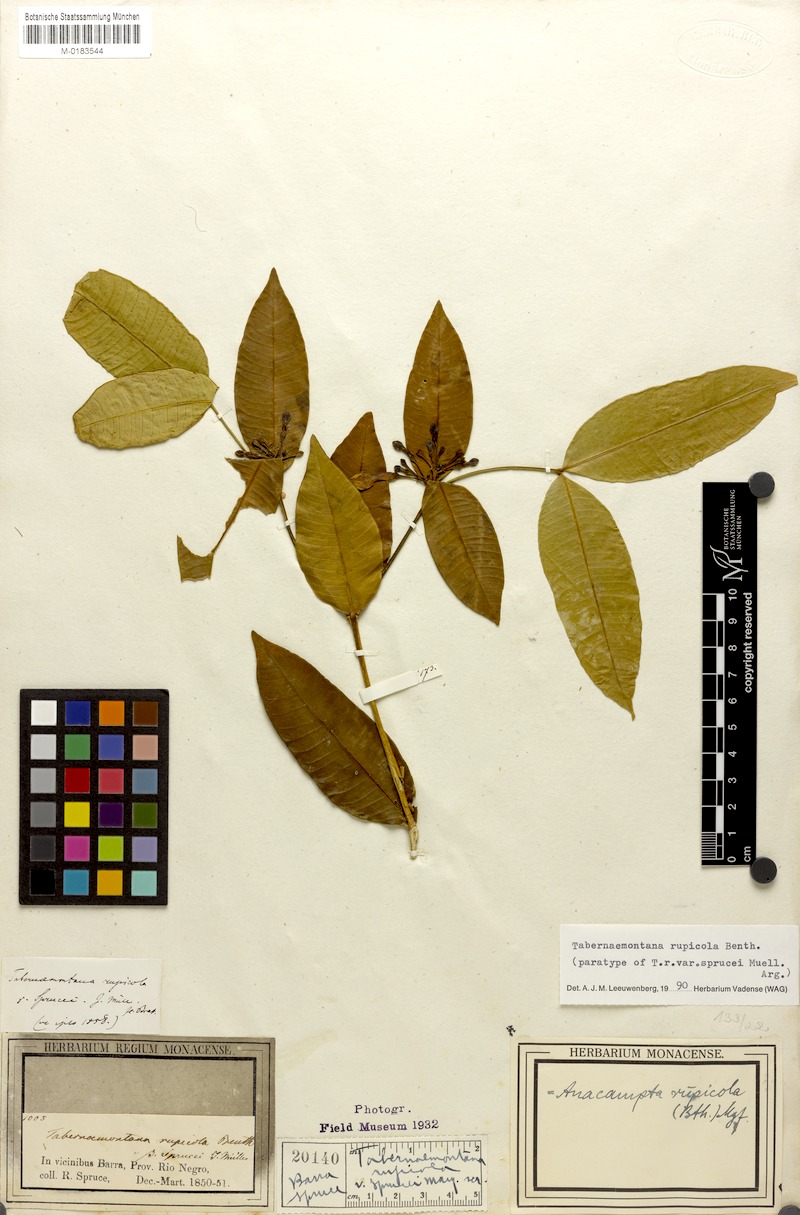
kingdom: Plantae
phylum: Tracheophyta
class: Magnoliopsida
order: Gentianales
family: Apocynaceae
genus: Tabernaemontana
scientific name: Tabernaemontana rupicola
